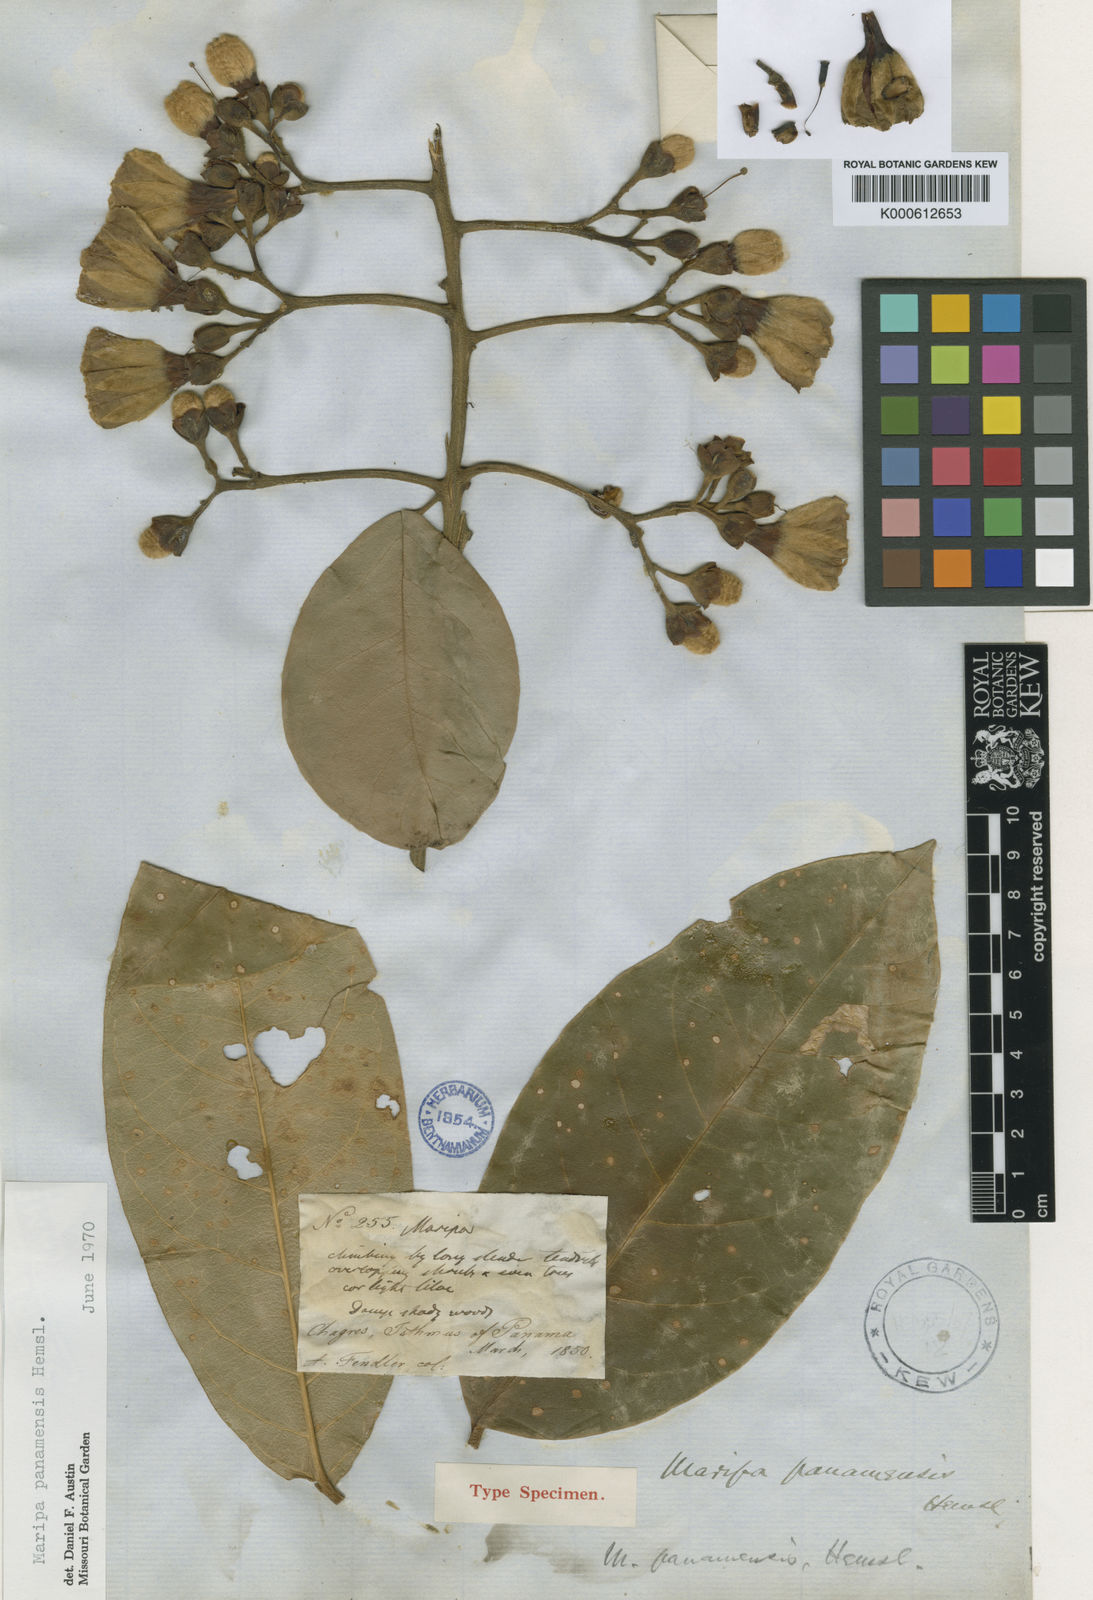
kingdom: Plantae
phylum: Tracheophyta
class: Magnoliopsida
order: Solanales
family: Convolvulaceae
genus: Maripa
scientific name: Maripa panamensis
